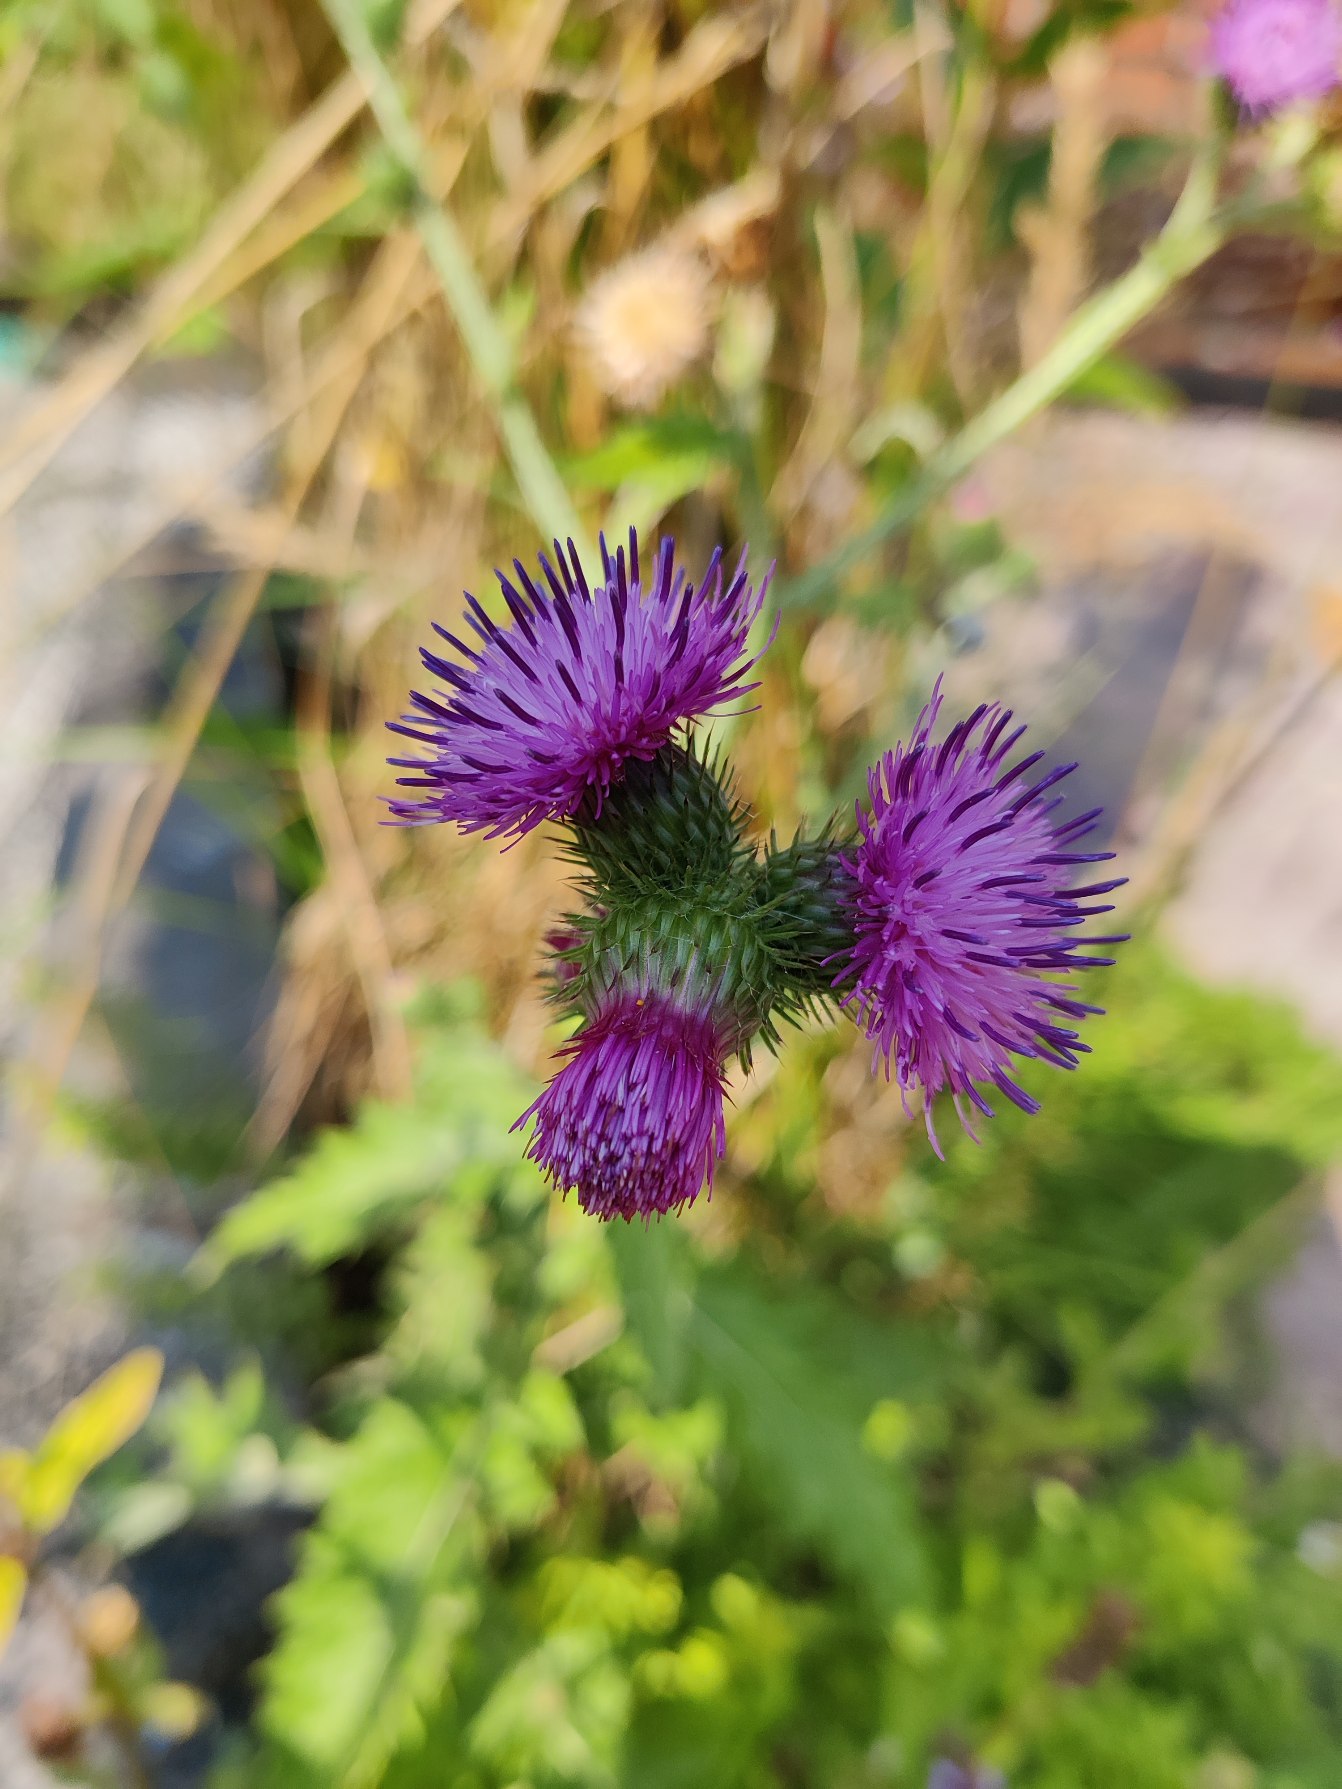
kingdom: Plantae
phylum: Tracheophyta
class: Magnoliopsida
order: Asterales
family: Asteraceae
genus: Carduus
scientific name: Carduus crispus
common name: Kruset tidsel
